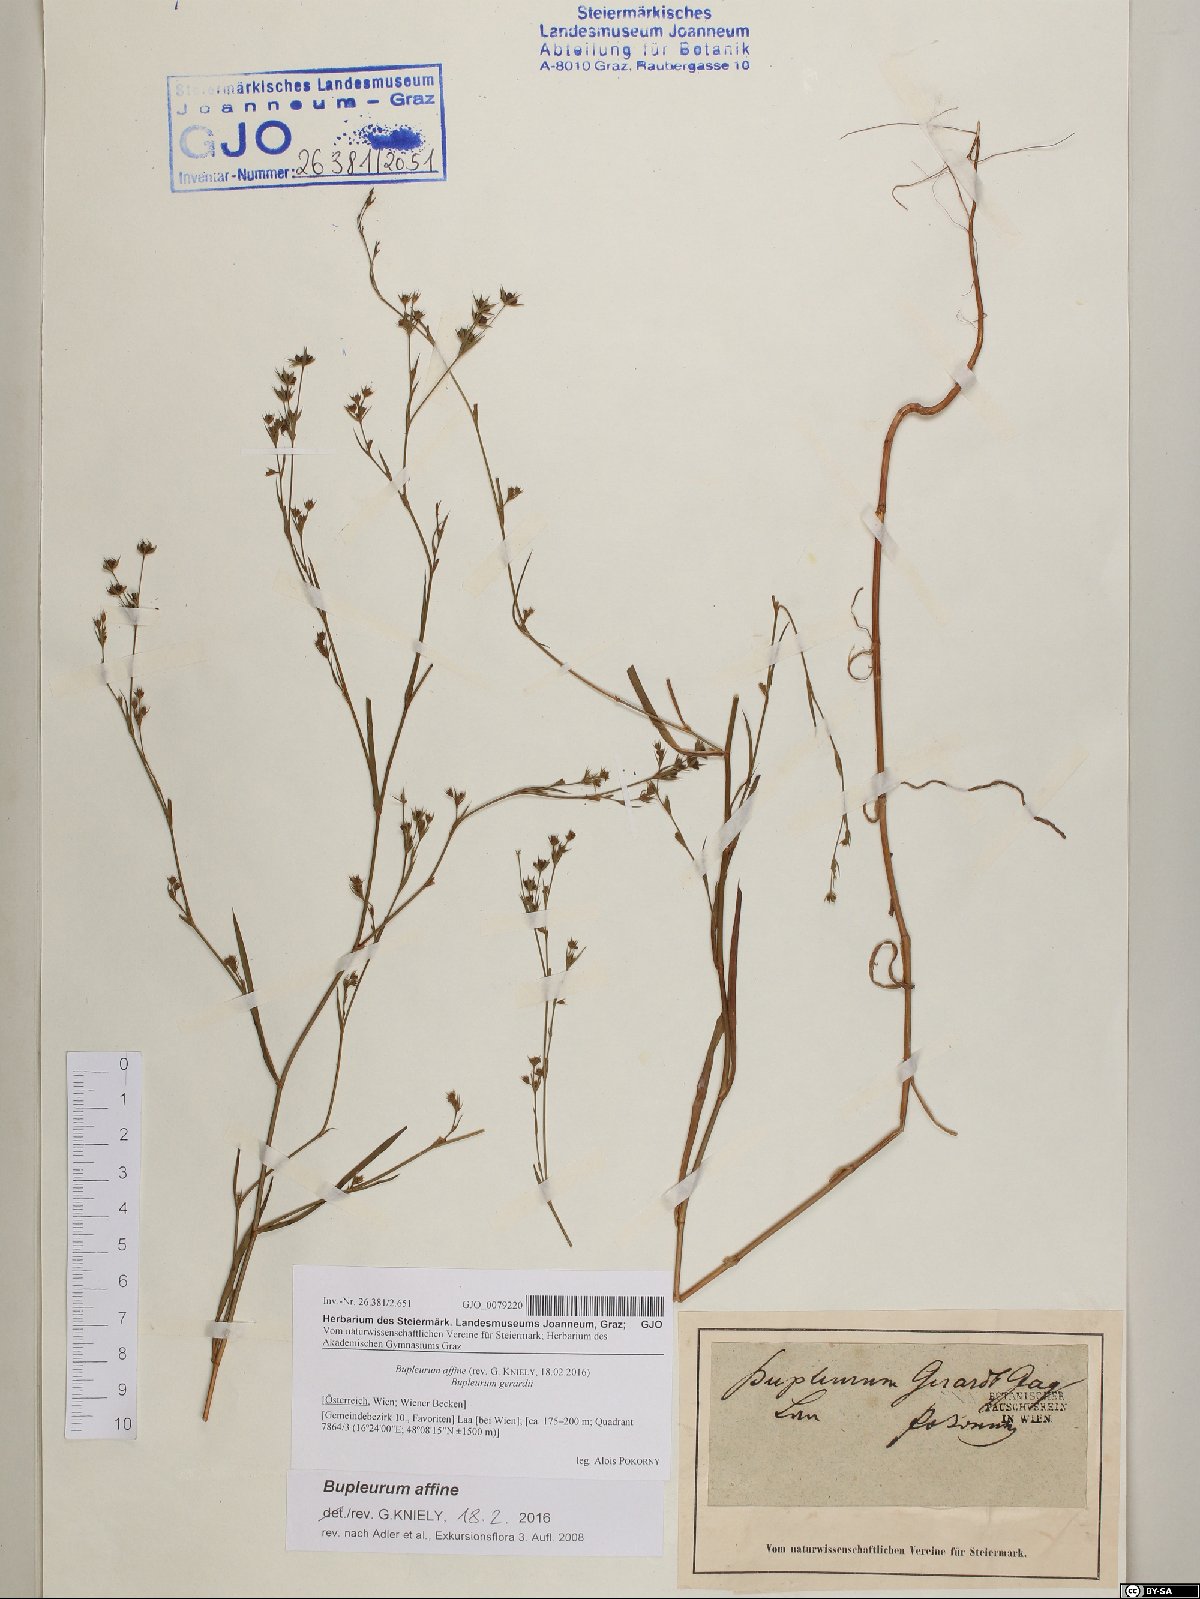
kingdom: Plantae
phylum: Tracheophyta
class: Magnoliopsida
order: Apiales
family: Apiaceae
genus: Bupleurum
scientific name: Bupleurum affine
